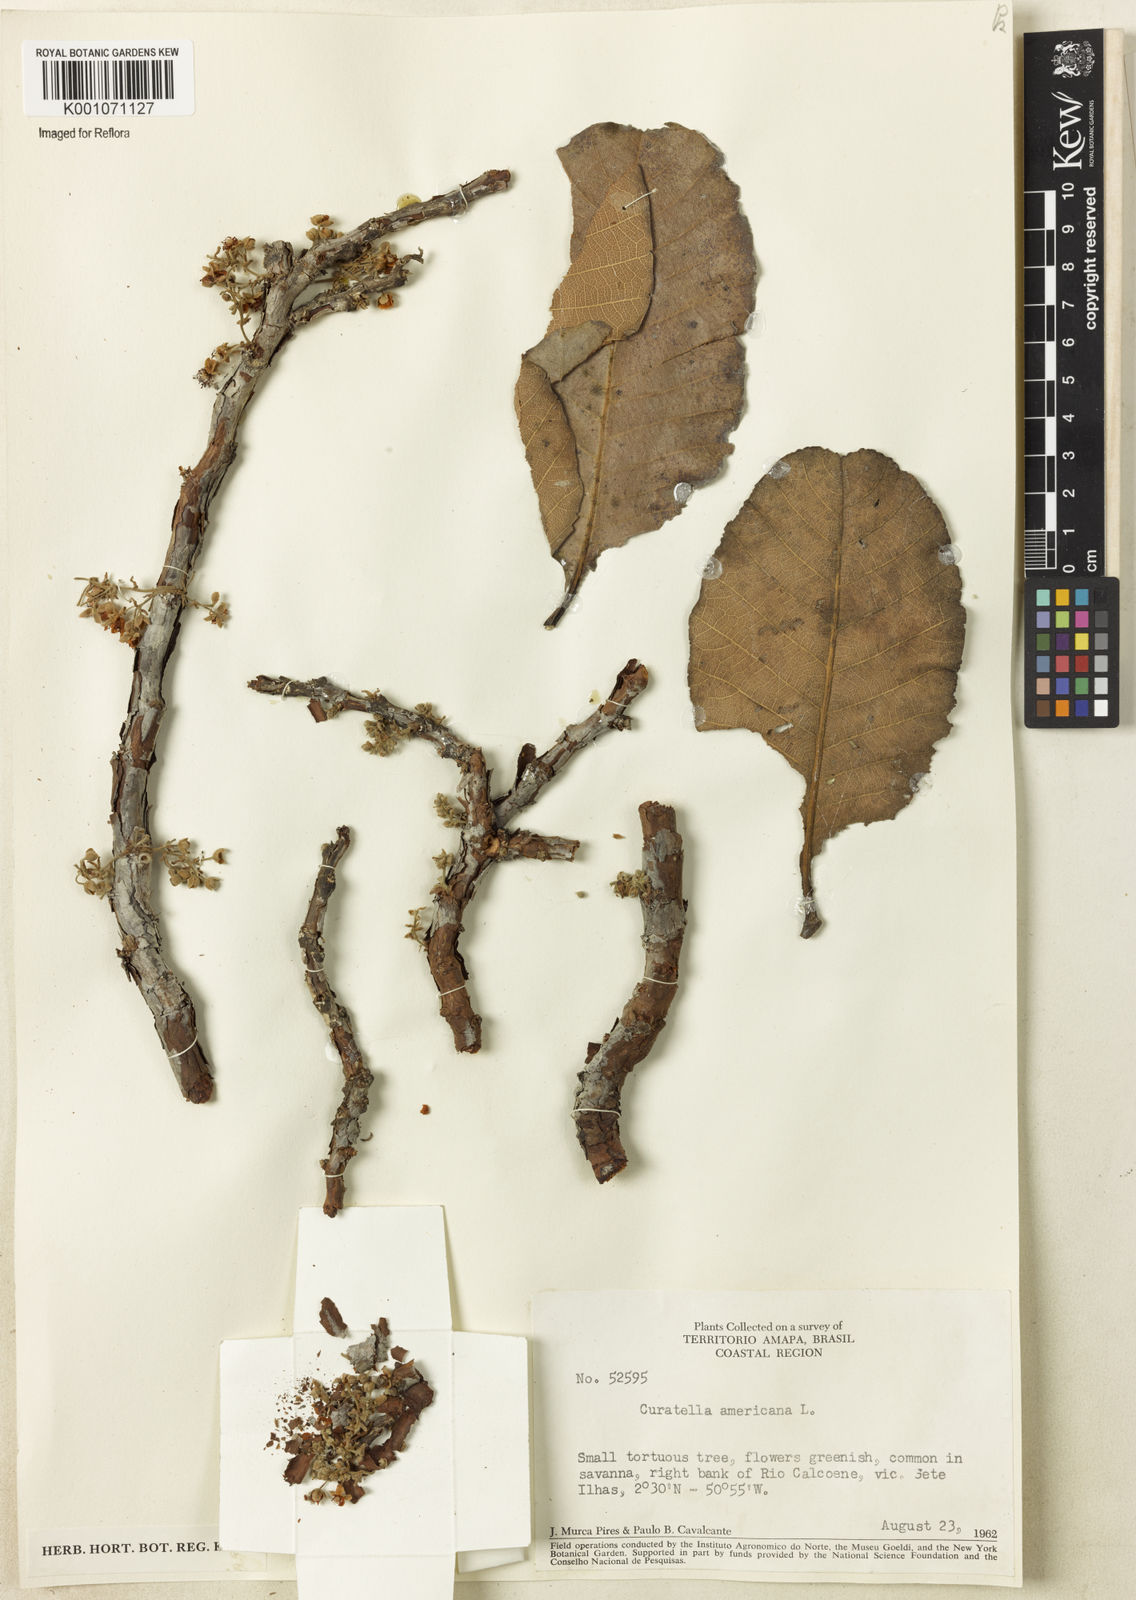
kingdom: Plantae
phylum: Tracheophyta
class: Magnoliopsida
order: Dilleniales
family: Dilleniaceae
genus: Curatella
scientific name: Curatella americana
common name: Sandpaper tree
